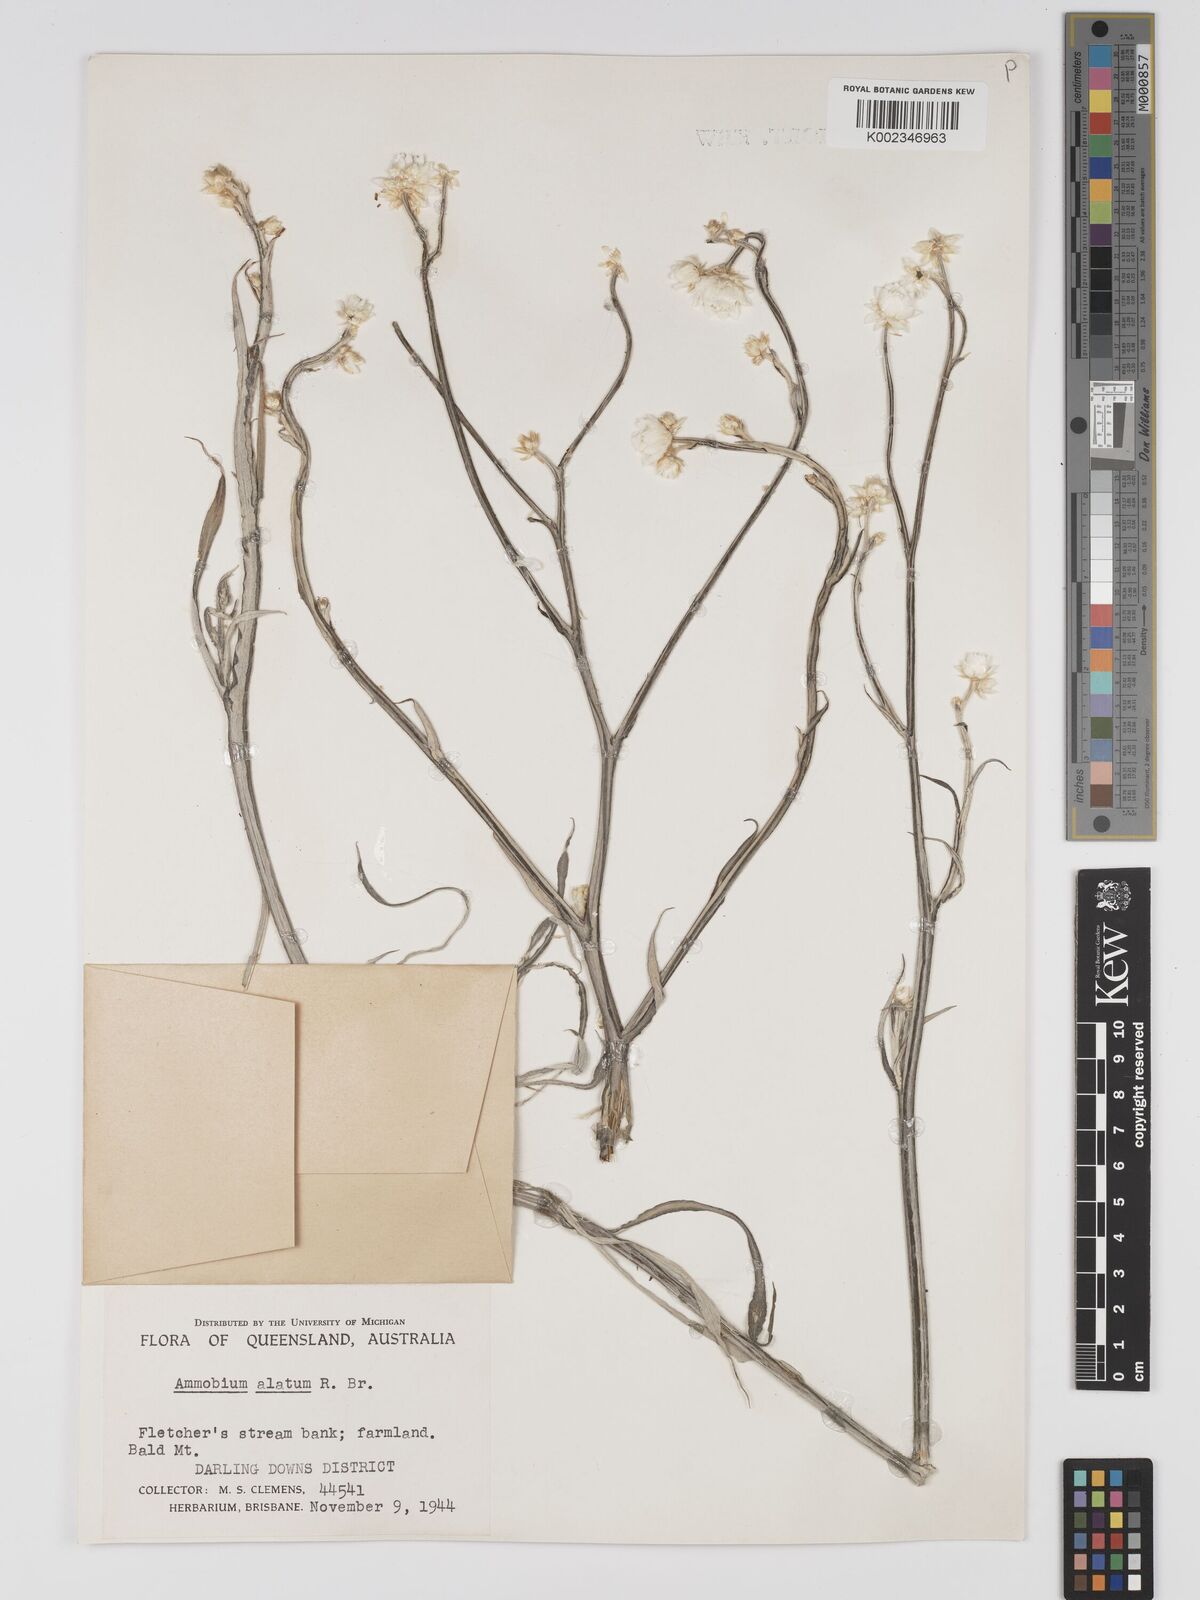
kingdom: Plantae
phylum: Tracheophyta
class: Magnoliopsida
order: Asterales
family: Asteraceae
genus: Ammobium
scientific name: Ammobium alatum
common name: Winged everlasting
